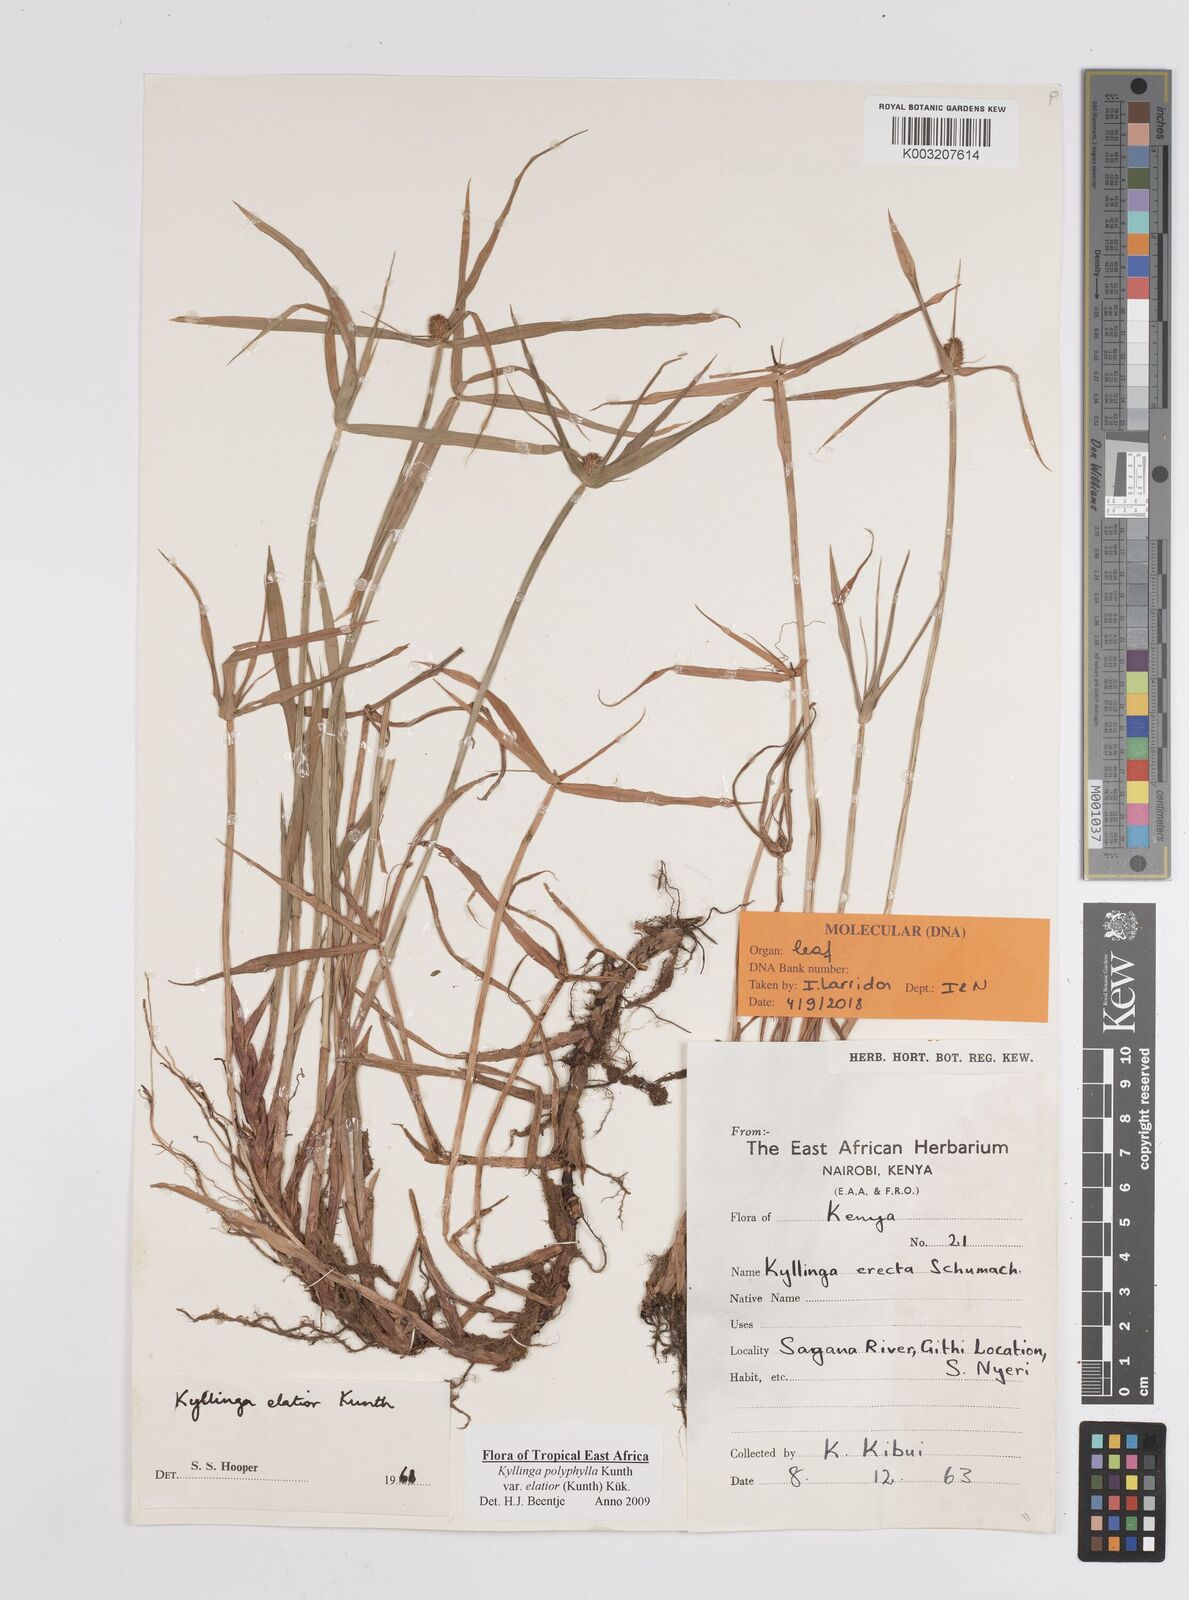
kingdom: Plantae
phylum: Tracheophyta
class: Liliopsida
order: Poales
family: Cyperaceae
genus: Cyperus
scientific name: Cyperus
